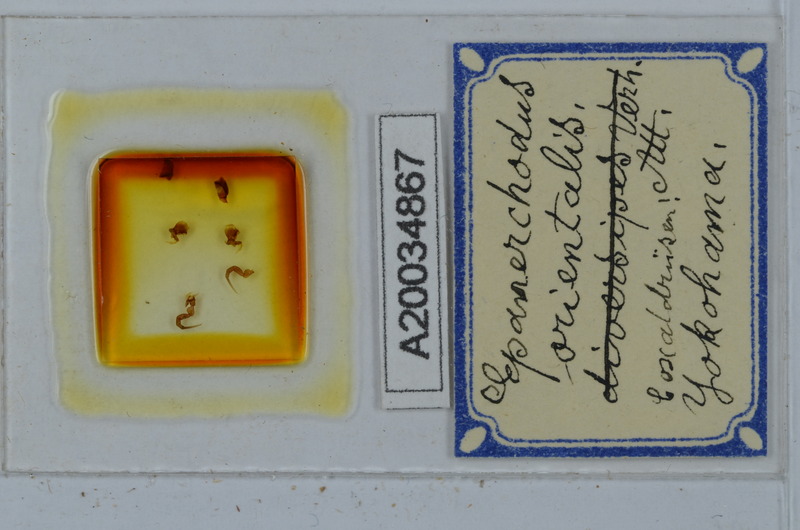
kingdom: Animalia
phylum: Arthropoda
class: Diplopoda
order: Polydesmida
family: Polydesmidae
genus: Epanerchodus
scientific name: Epanerchodus orientalis
